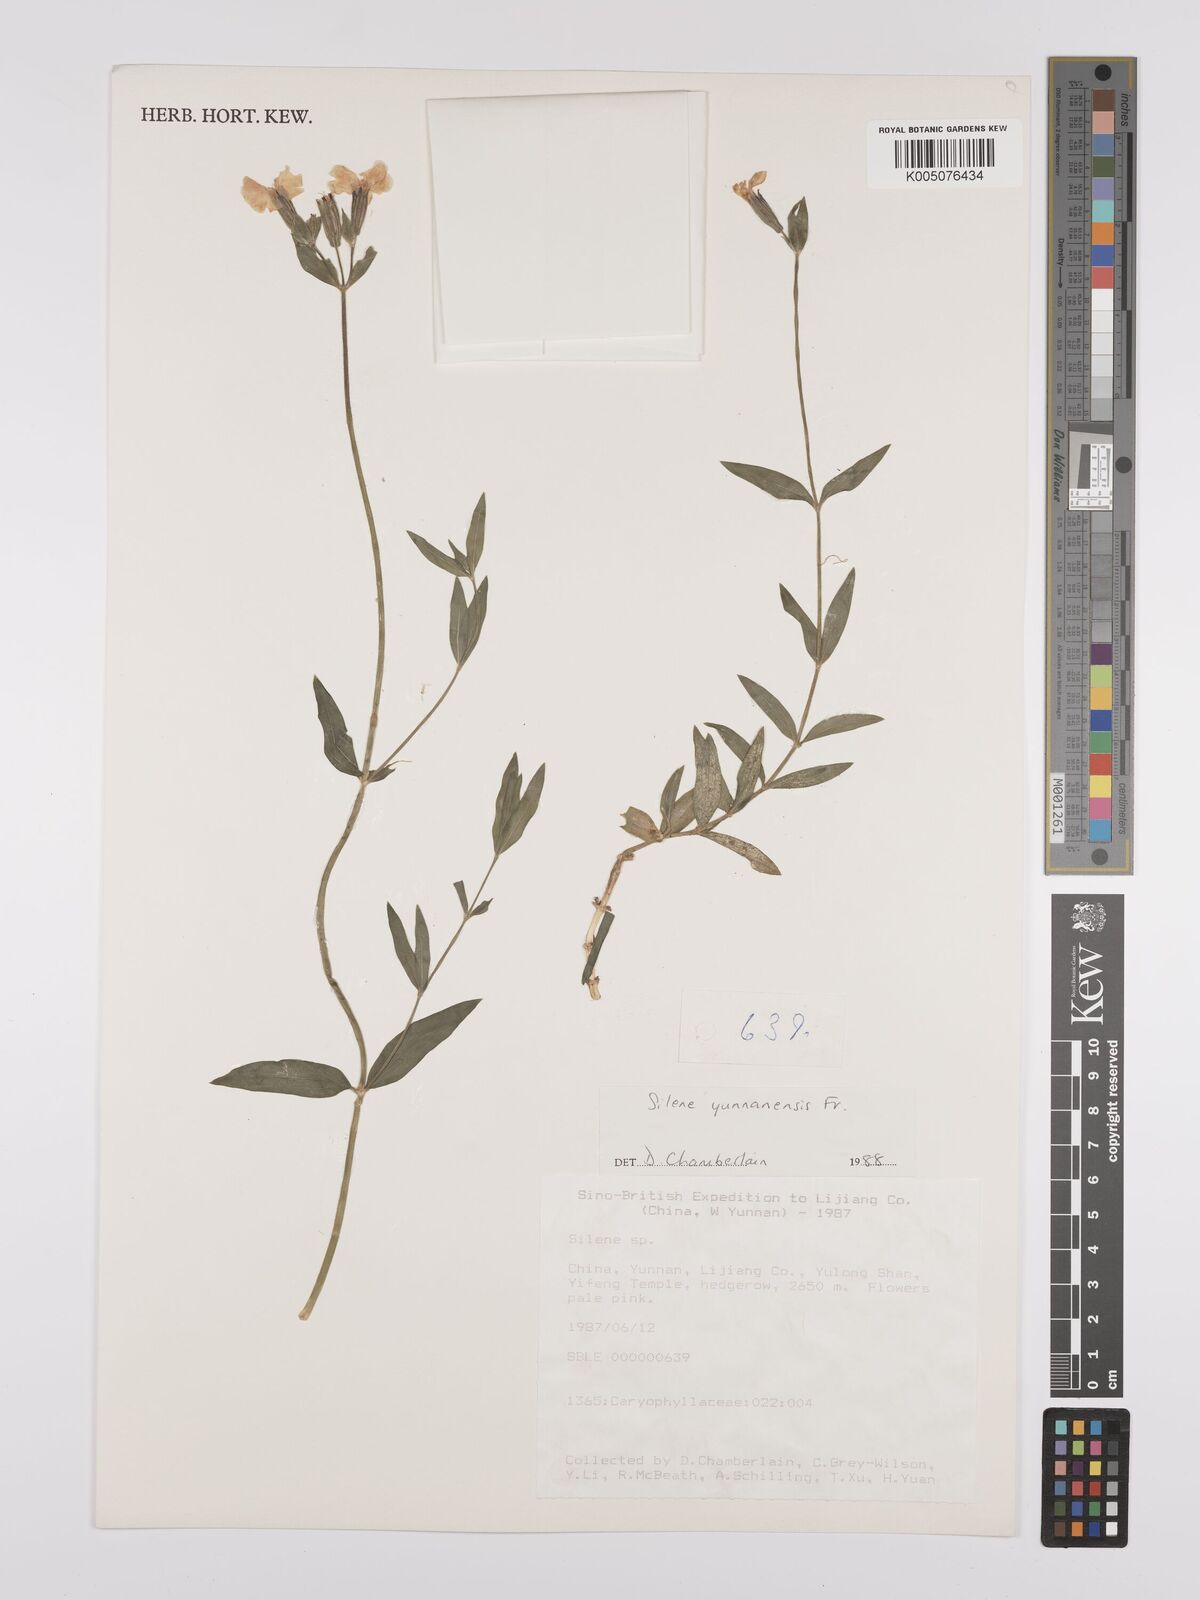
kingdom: Plantae
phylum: Tracheophyta
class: Magnoliopsida
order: Caryophyllales
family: Caryophyllaceae
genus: Silene
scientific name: Silene yunnanensis
